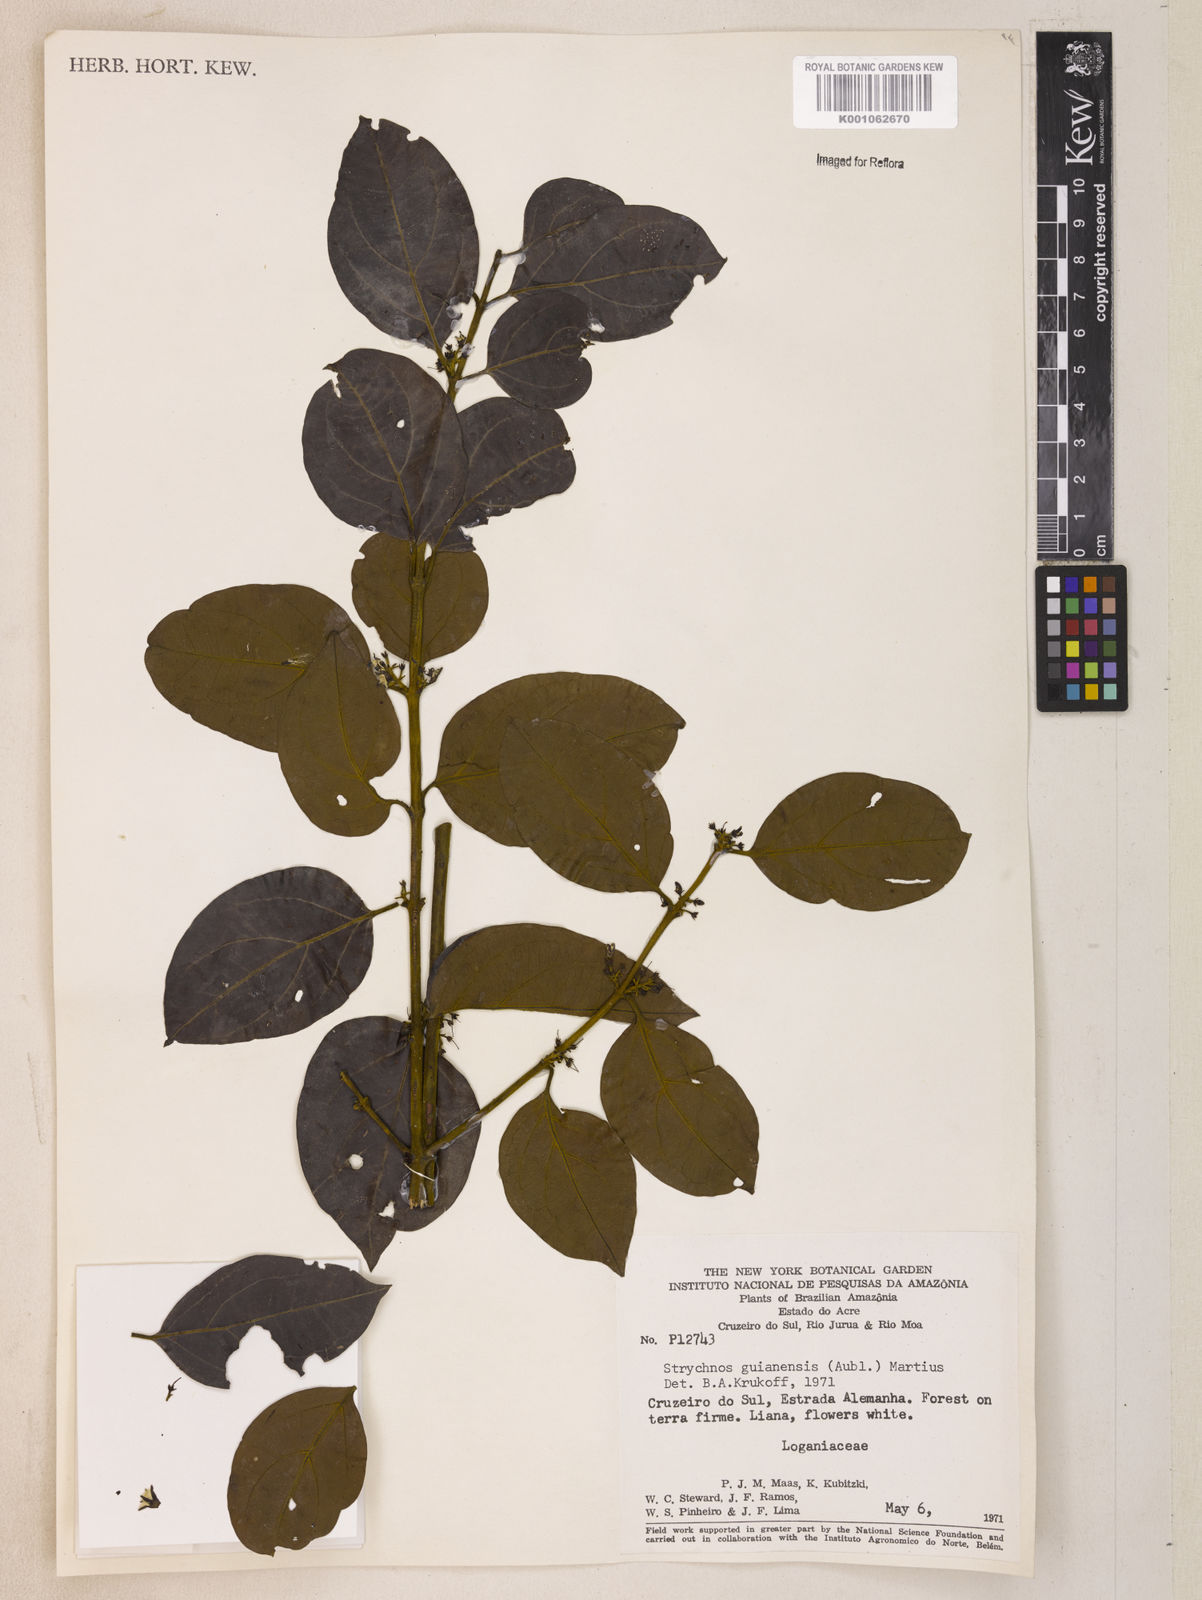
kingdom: Plantae
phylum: Tracheophyta
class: Magnoliopsida
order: Gentianales
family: Loganiaceae
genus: Strychnos
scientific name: Strychnos guianensis
